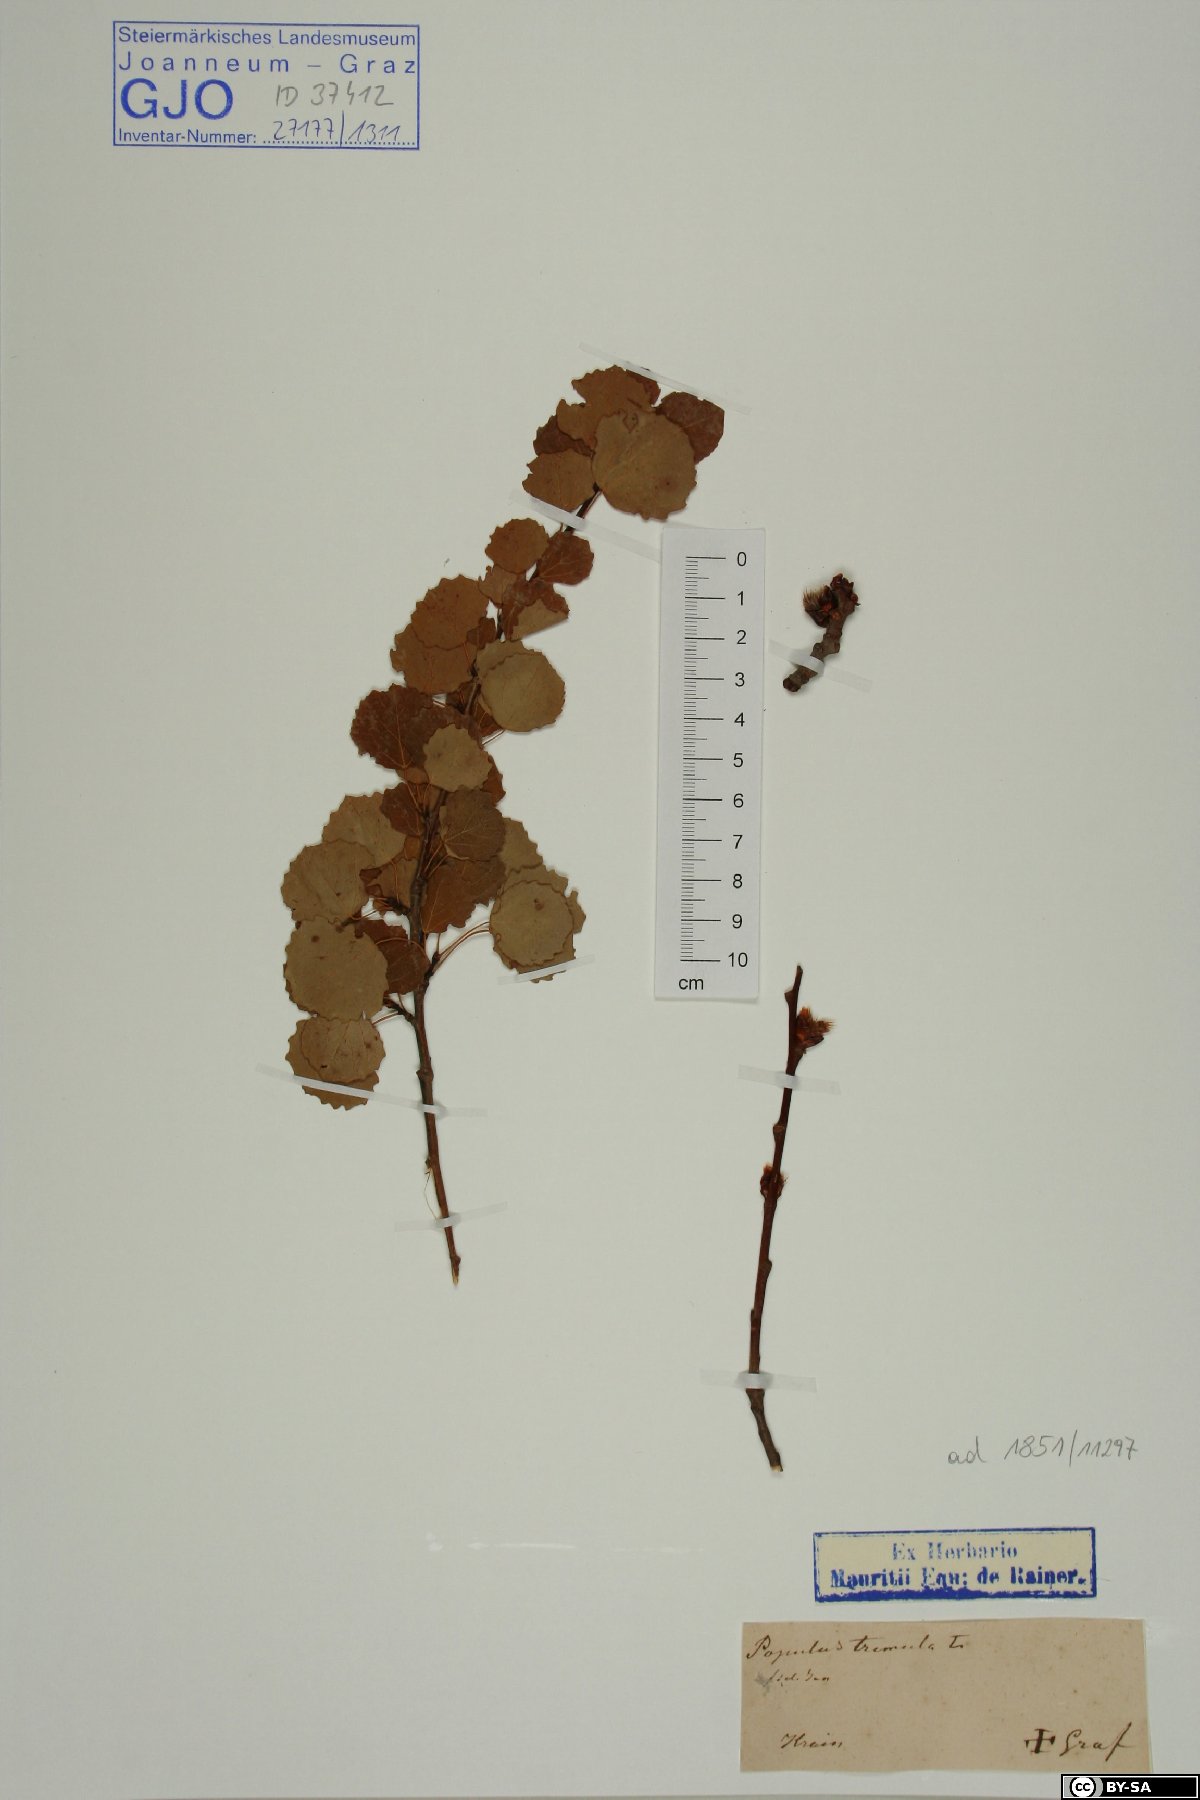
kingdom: Plantae
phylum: Tracheophyta
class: Magnoliopsida
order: Malpighiales
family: Salicaceae
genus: Populus
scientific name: Populus tremula
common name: European aspen
